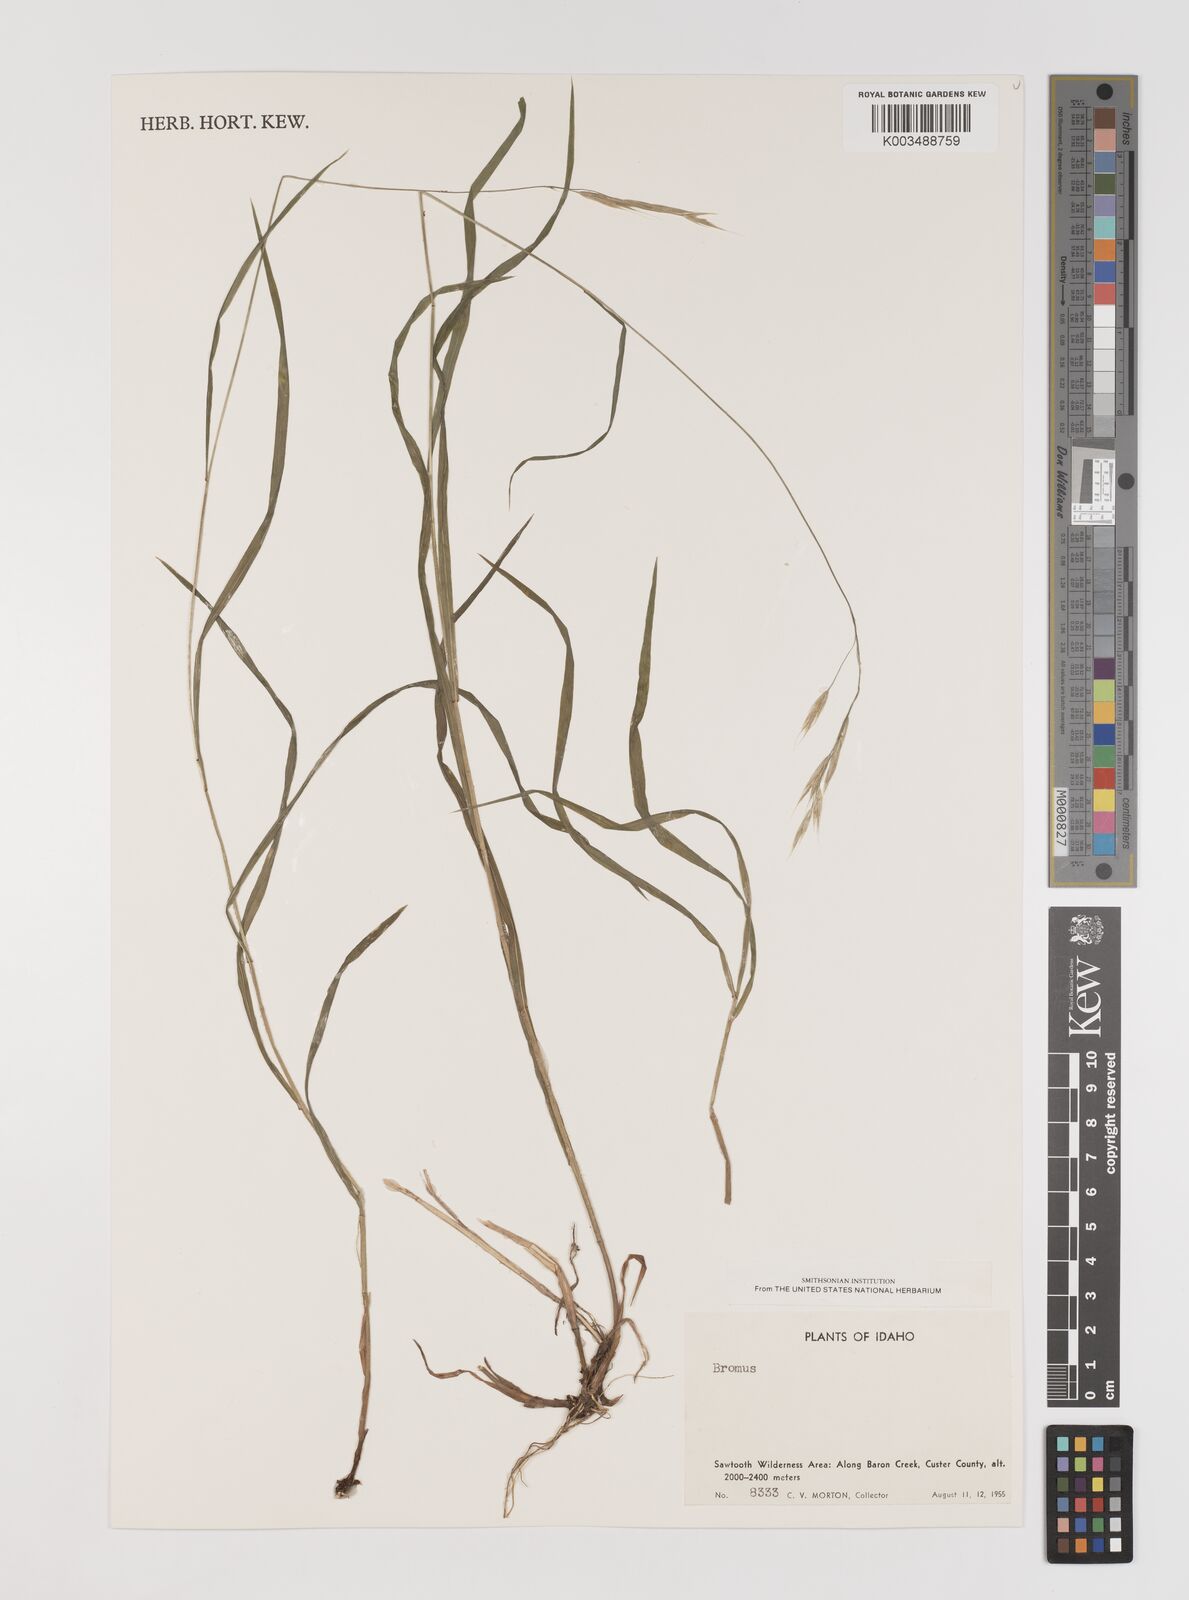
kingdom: Plantae
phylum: Tracheophyta
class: Liliopsida
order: Poales
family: Poaceae
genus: Bromus
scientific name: Bromus
